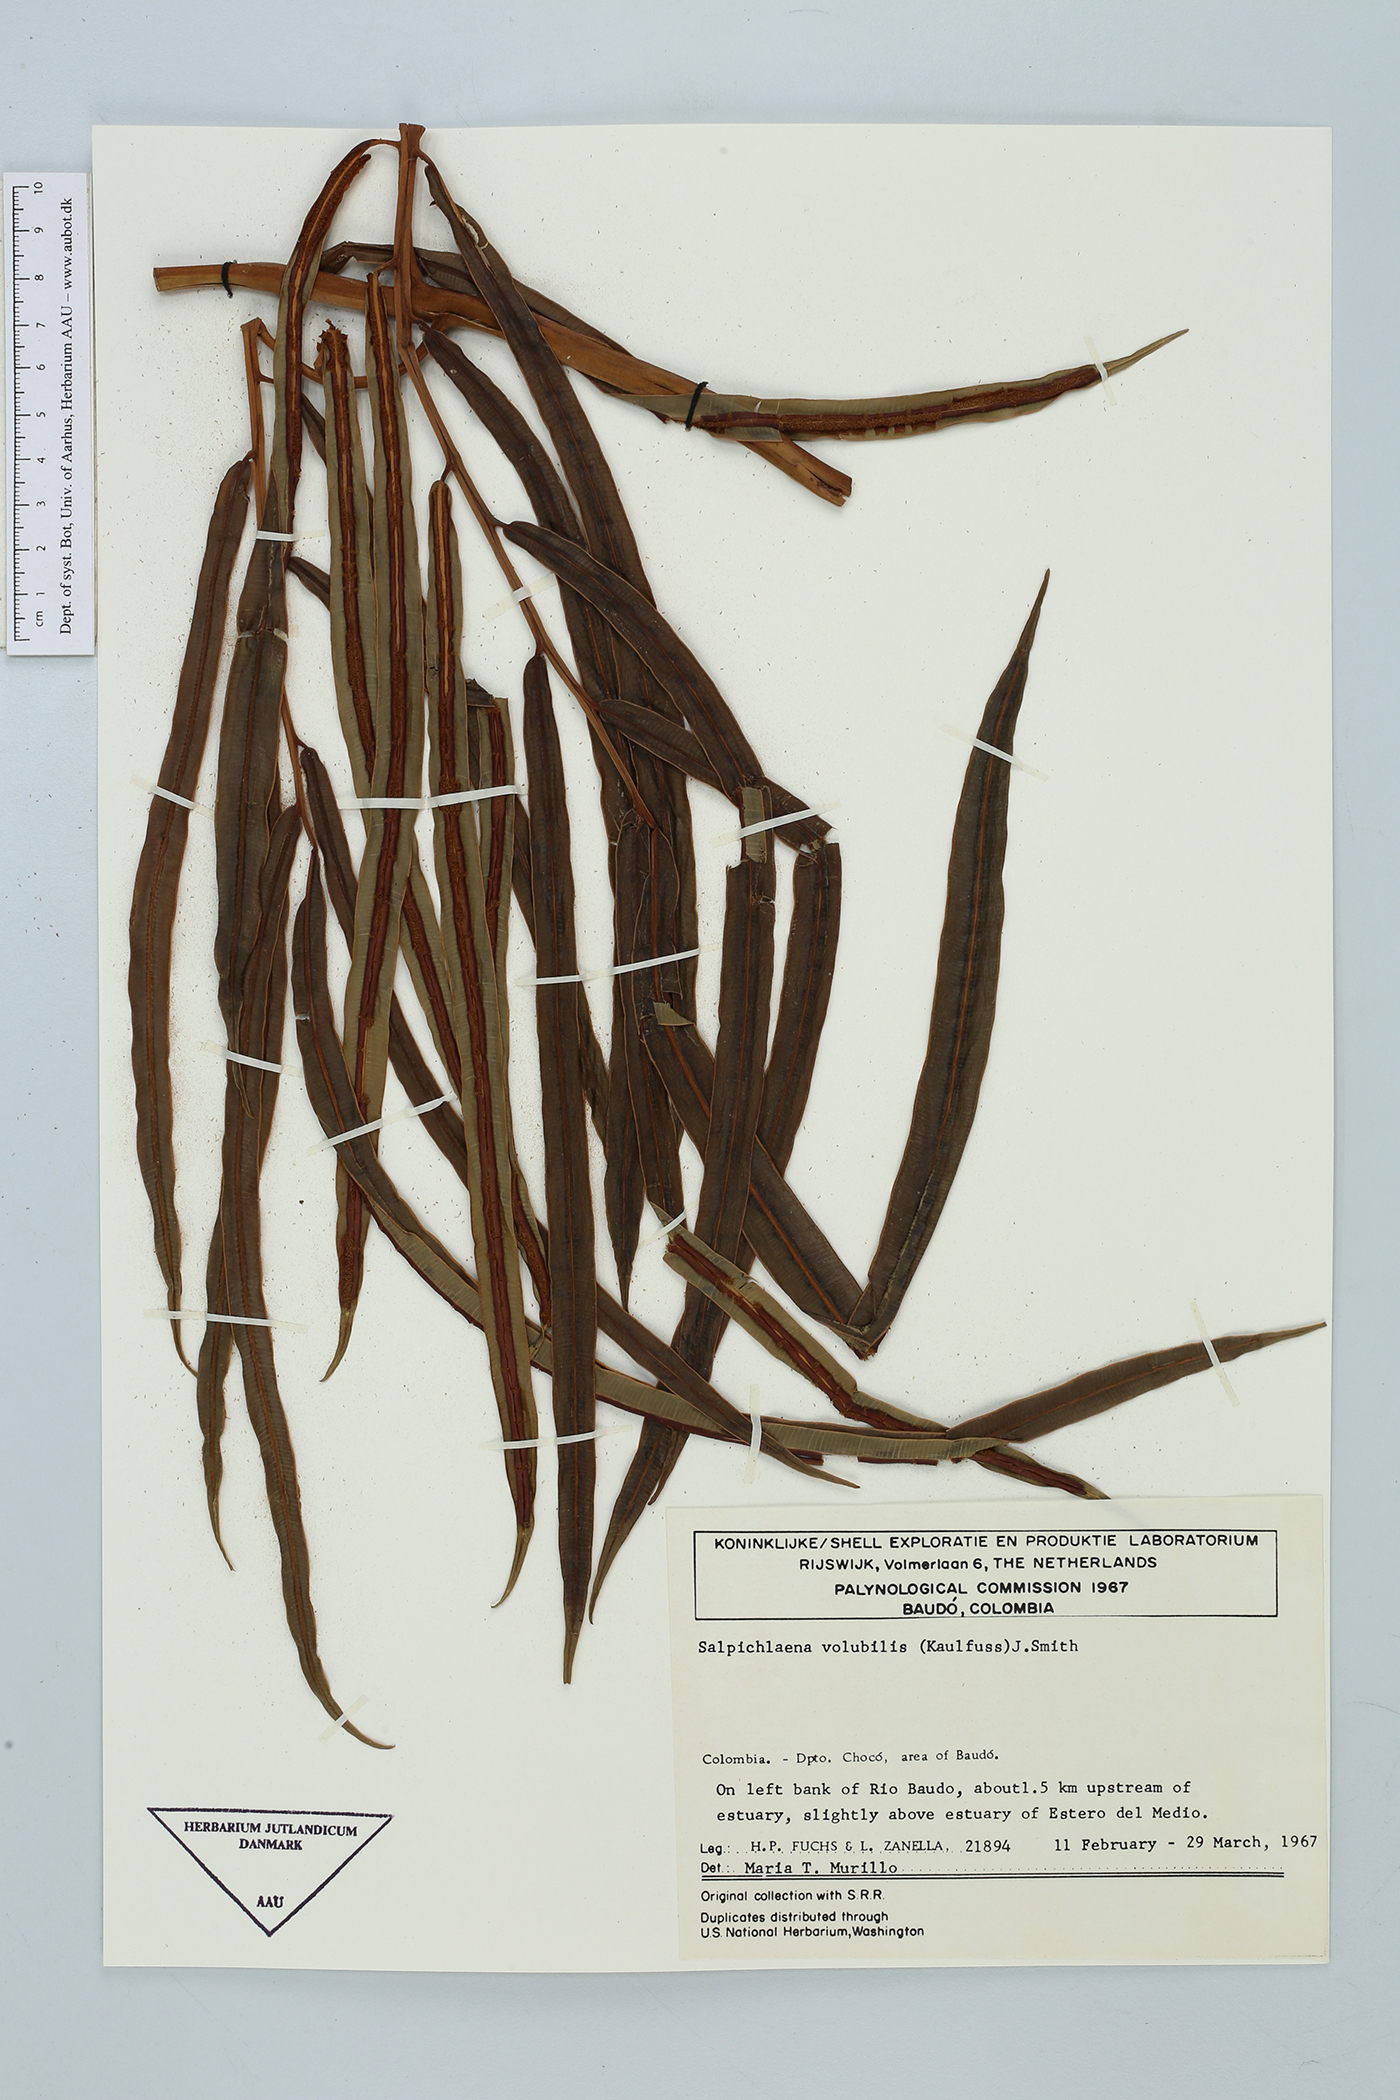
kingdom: Plantae
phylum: Tracheophyta
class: Polypodiopsida
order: Polypodiales
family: Blechnaceae
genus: Salpichlaena
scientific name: Salpichlaena volubilis
